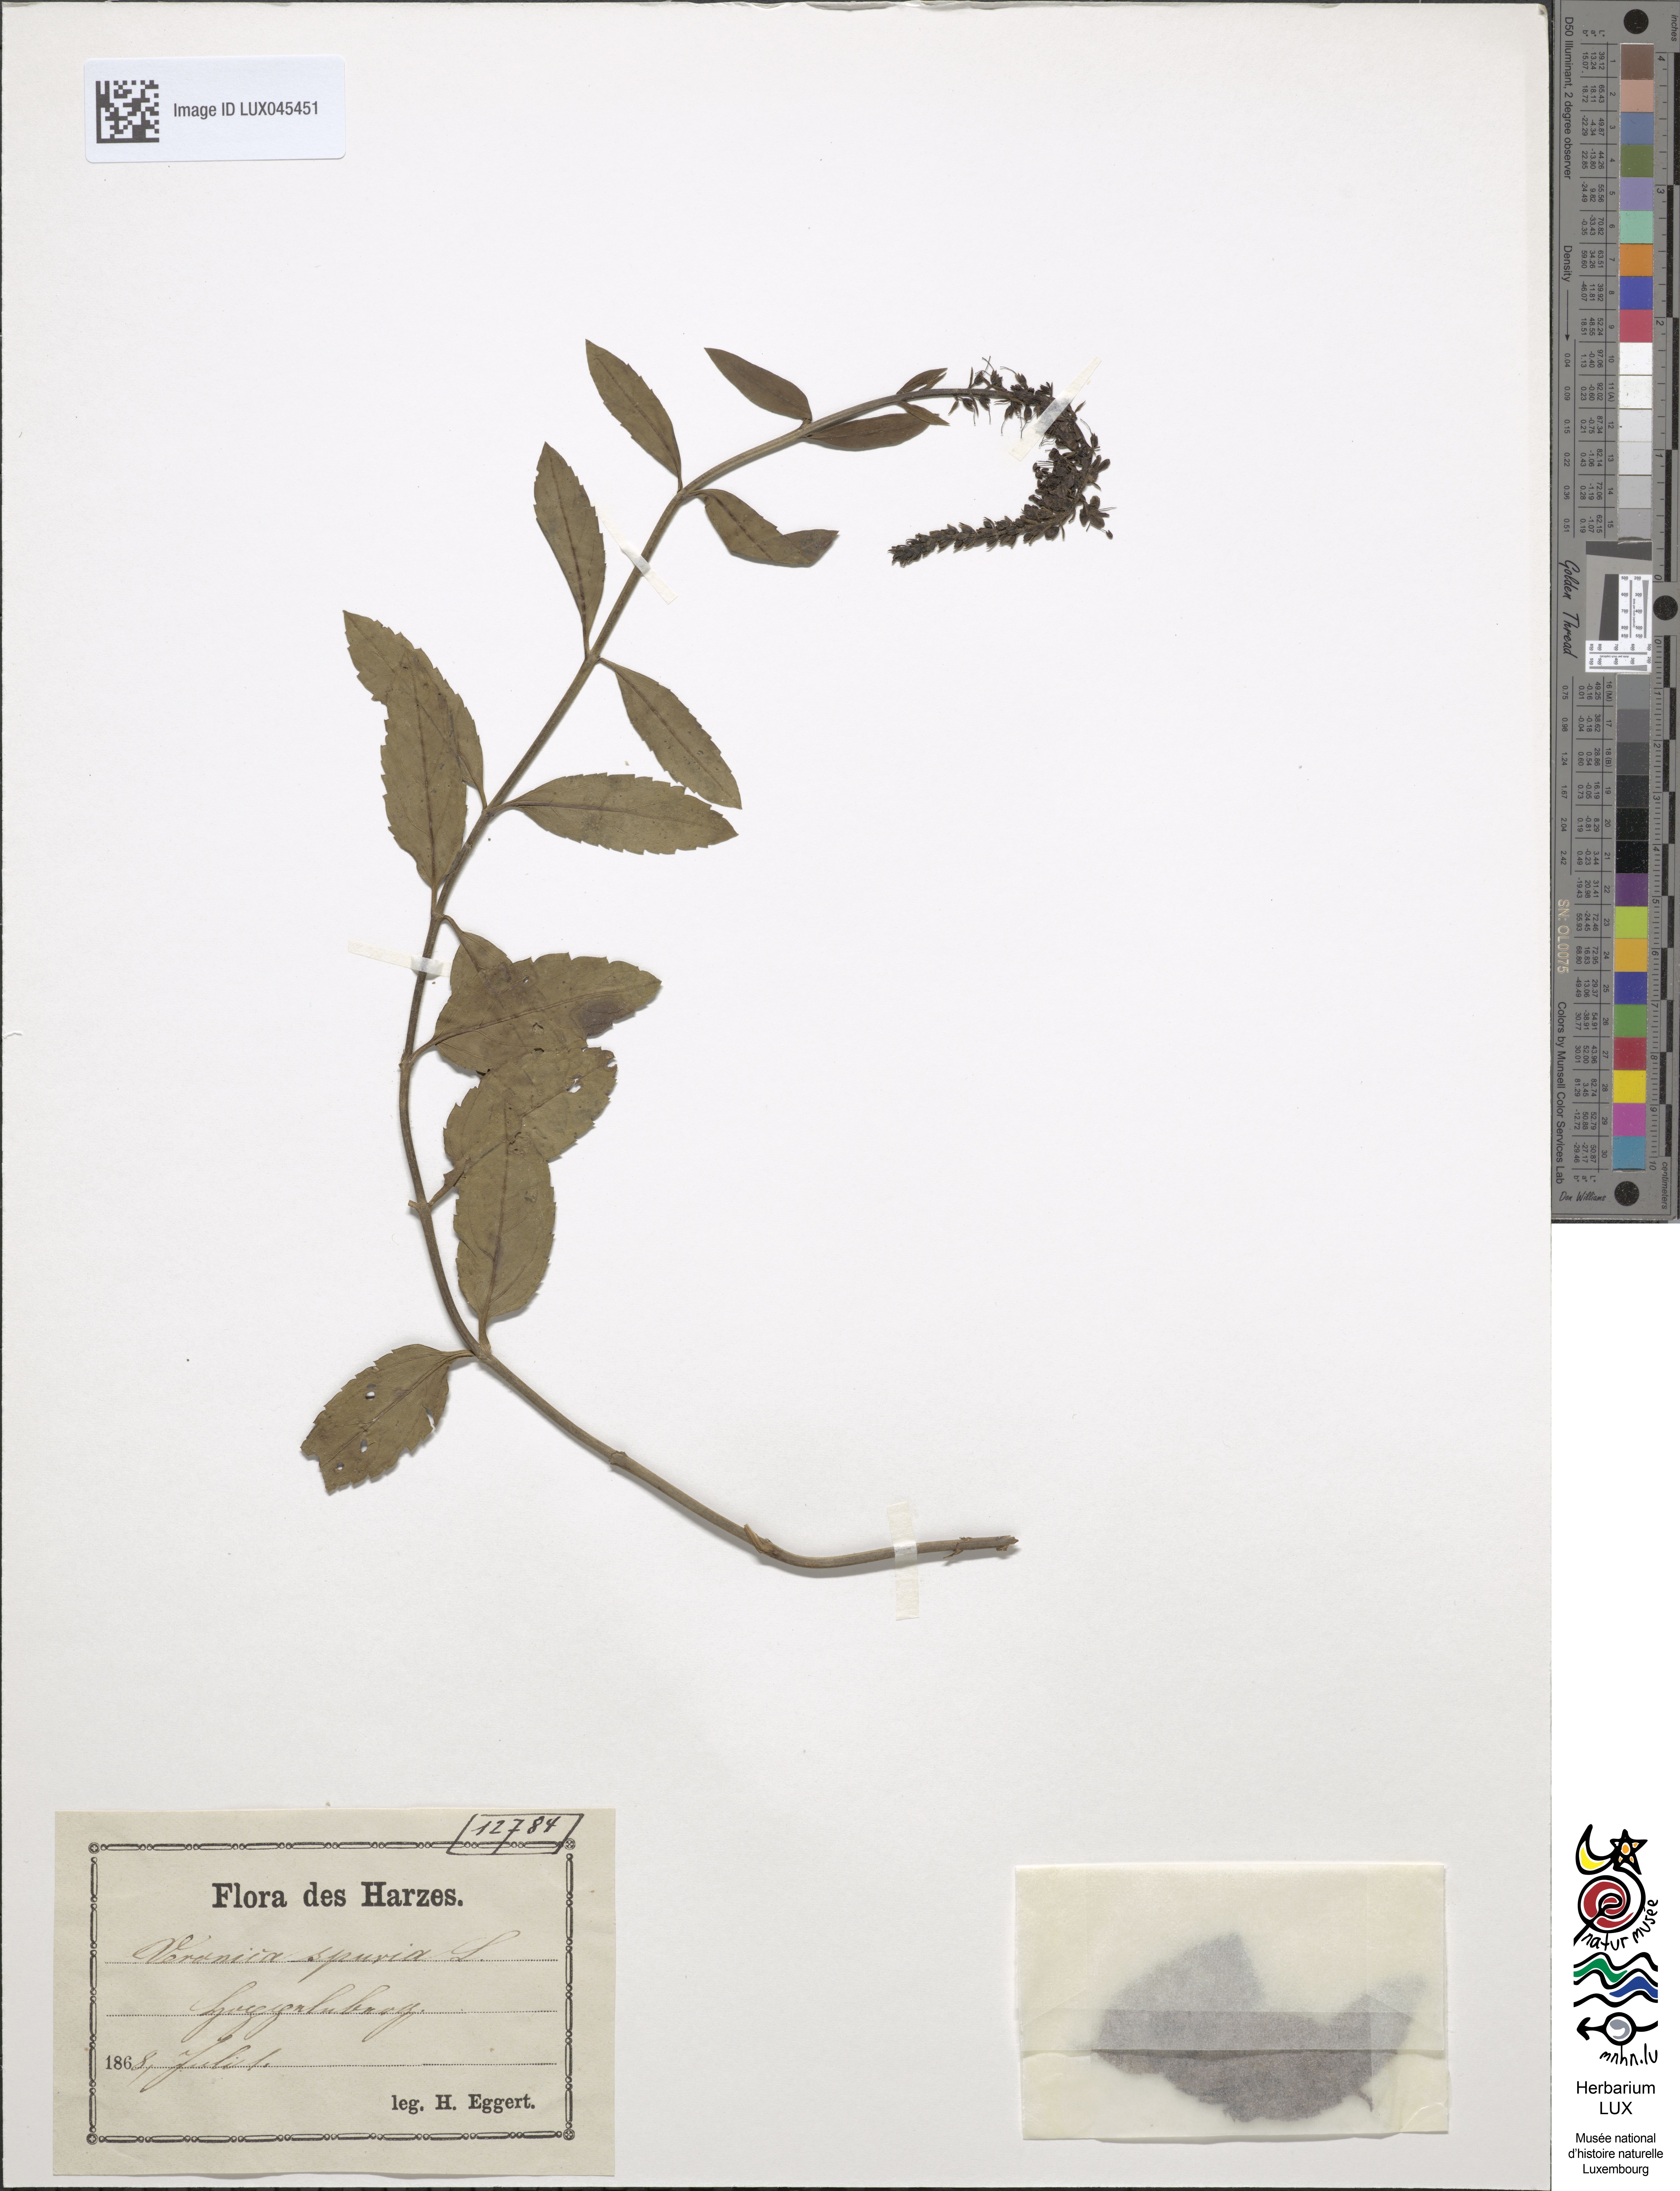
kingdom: Plantae
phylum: Tracheophyta
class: Magnoliopsida
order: Lamiales
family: Plantaginaceae
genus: Veronica
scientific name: Veronica spuria
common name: Bastard speedwell
